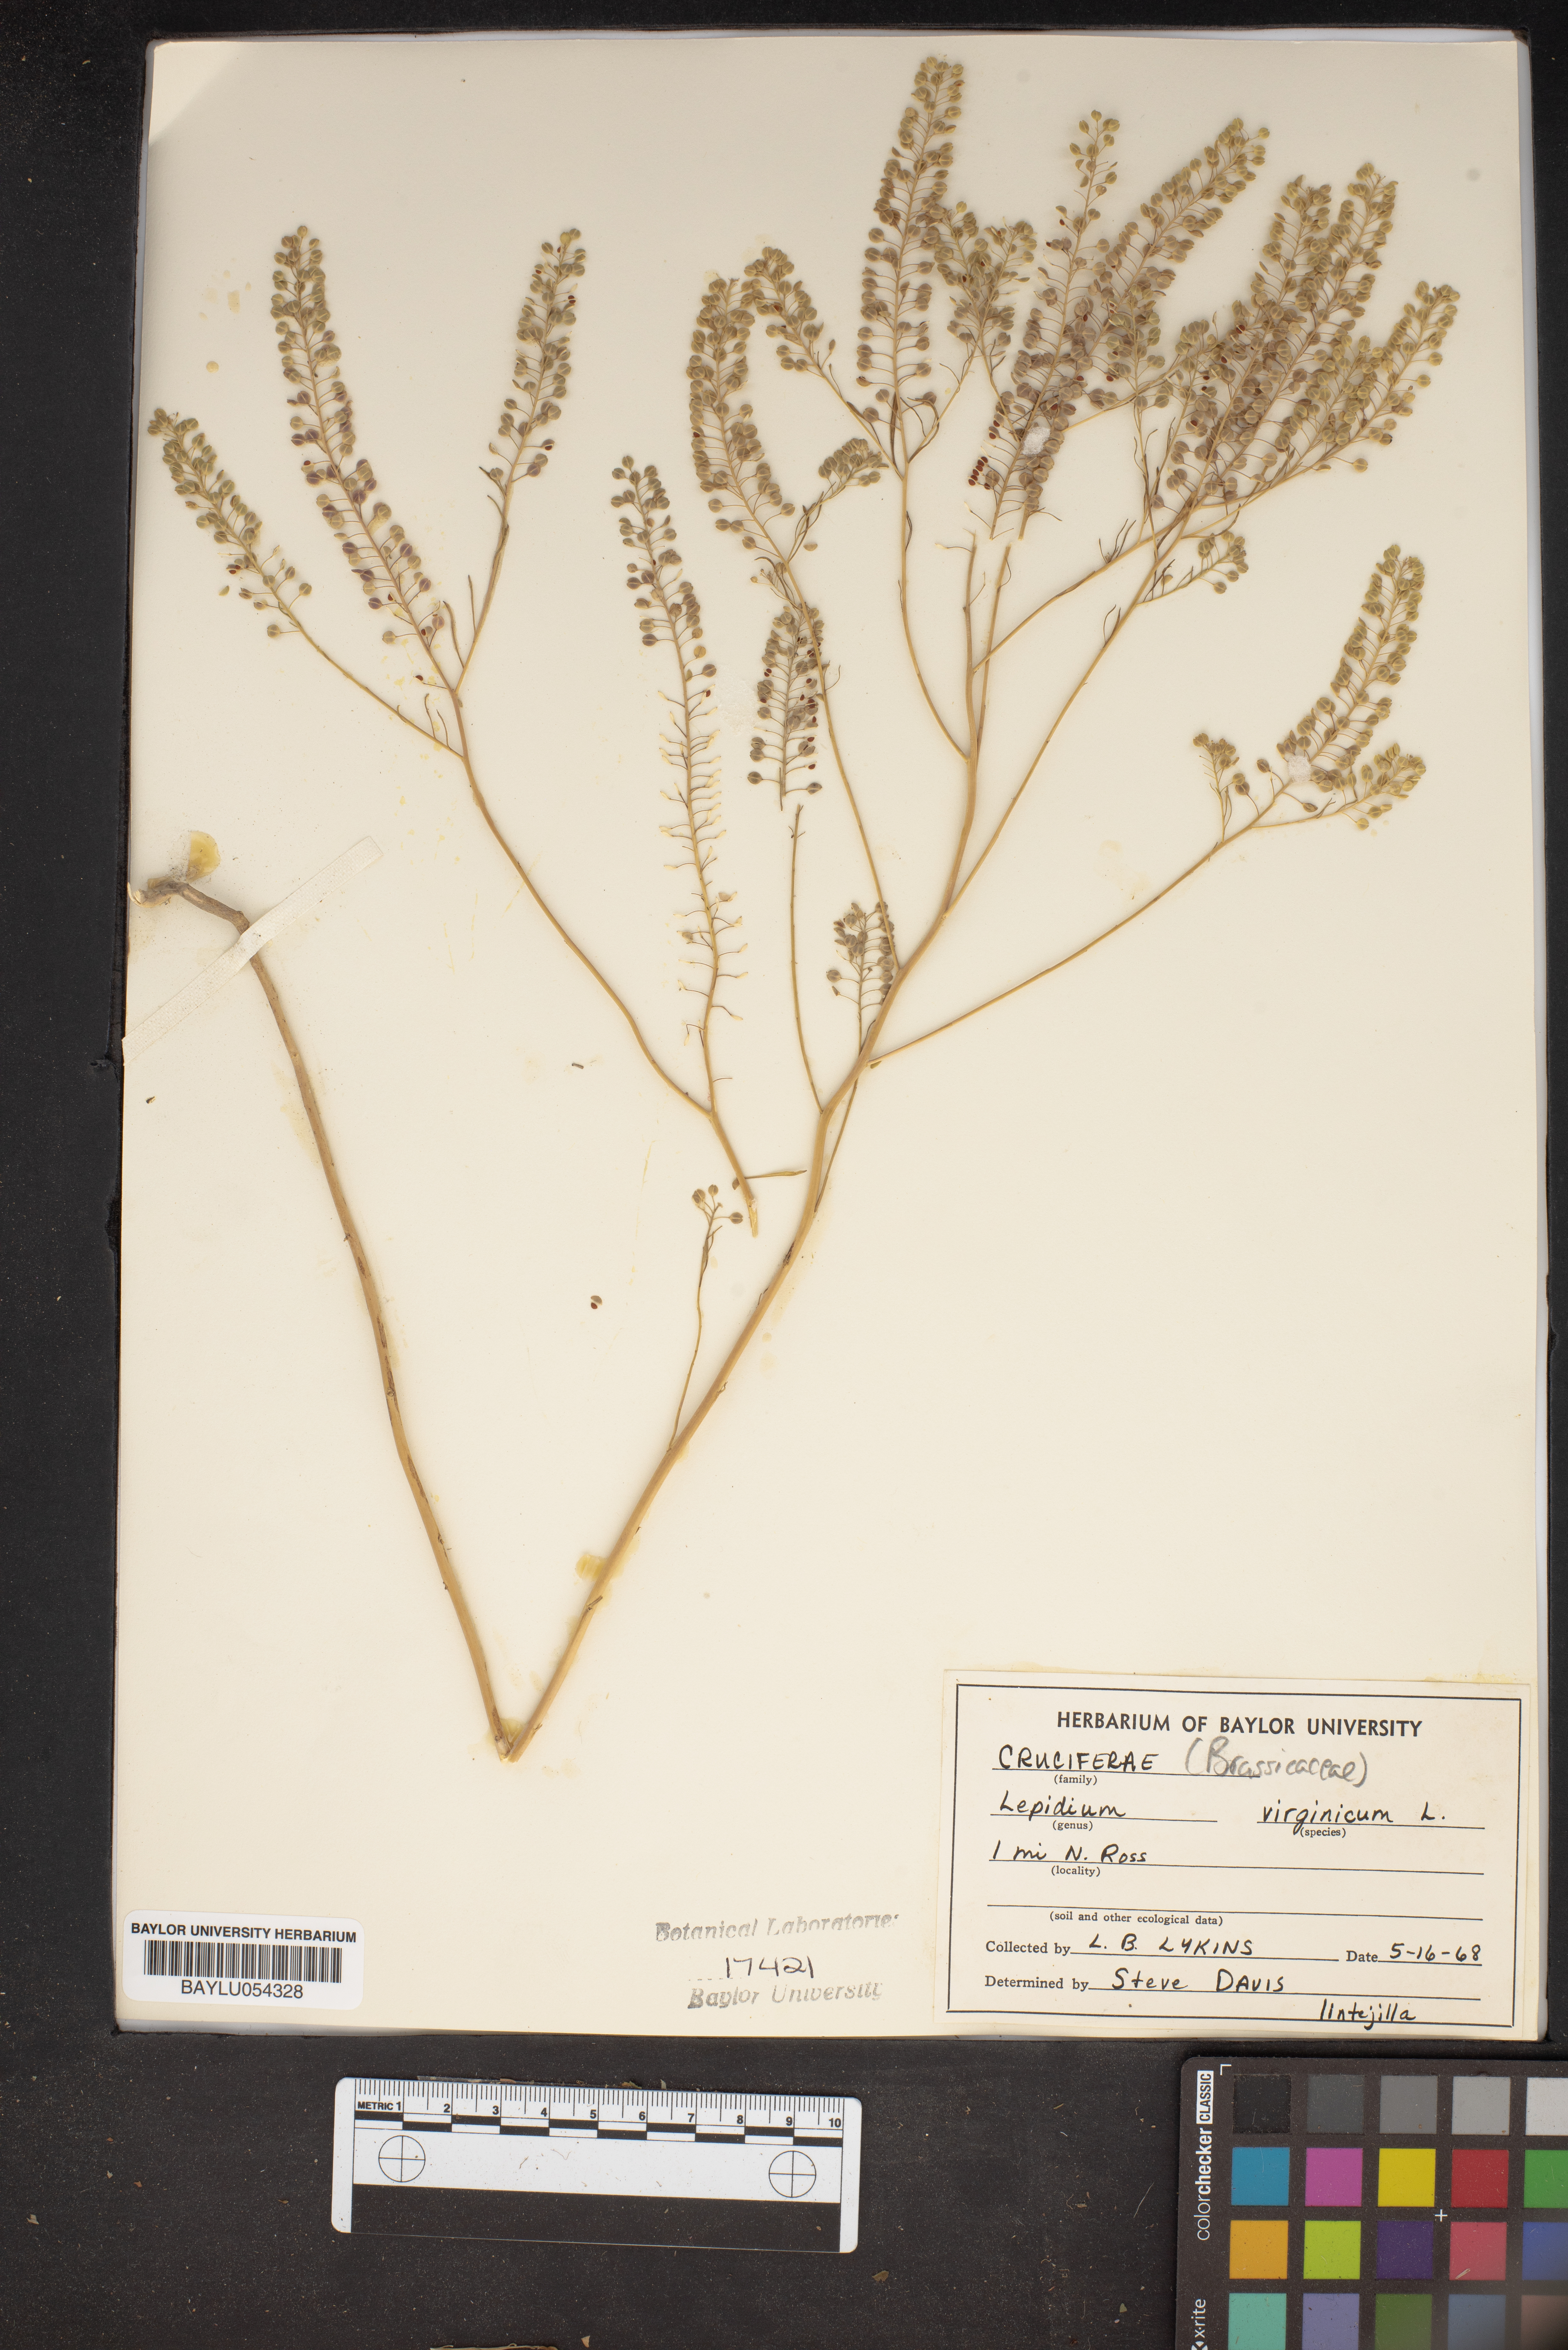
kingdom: Plantae
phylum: Tracheophyta
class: Magnoliopsida
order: Brassicales
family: Brassicaceae
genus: Lepidium
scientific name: Lepidium virginicum
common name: Least pepperwort
